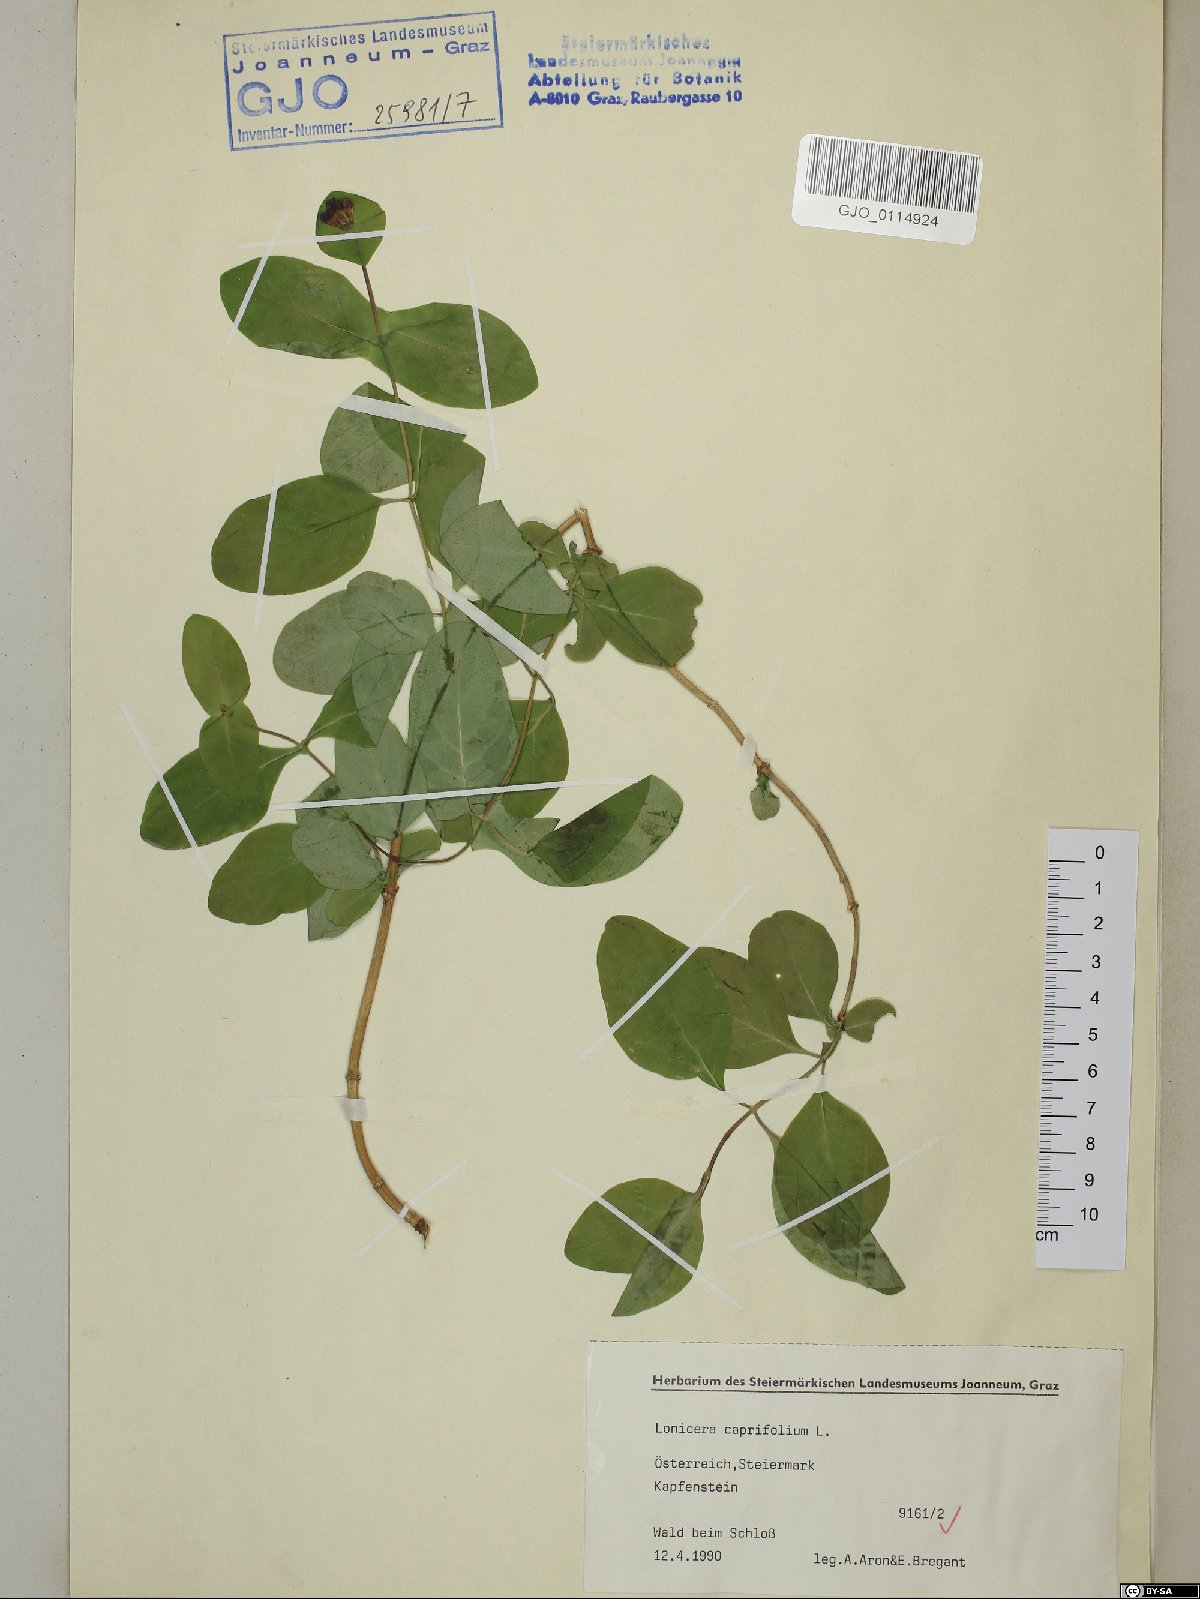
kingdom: Plantae
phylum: Tracheophyta
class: Magnoliopsida
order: Dipsacales
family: Caprifoliaceae
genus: Lonicera
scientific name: Lonicera caprifolium
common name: Perfoliate honeysuckle
